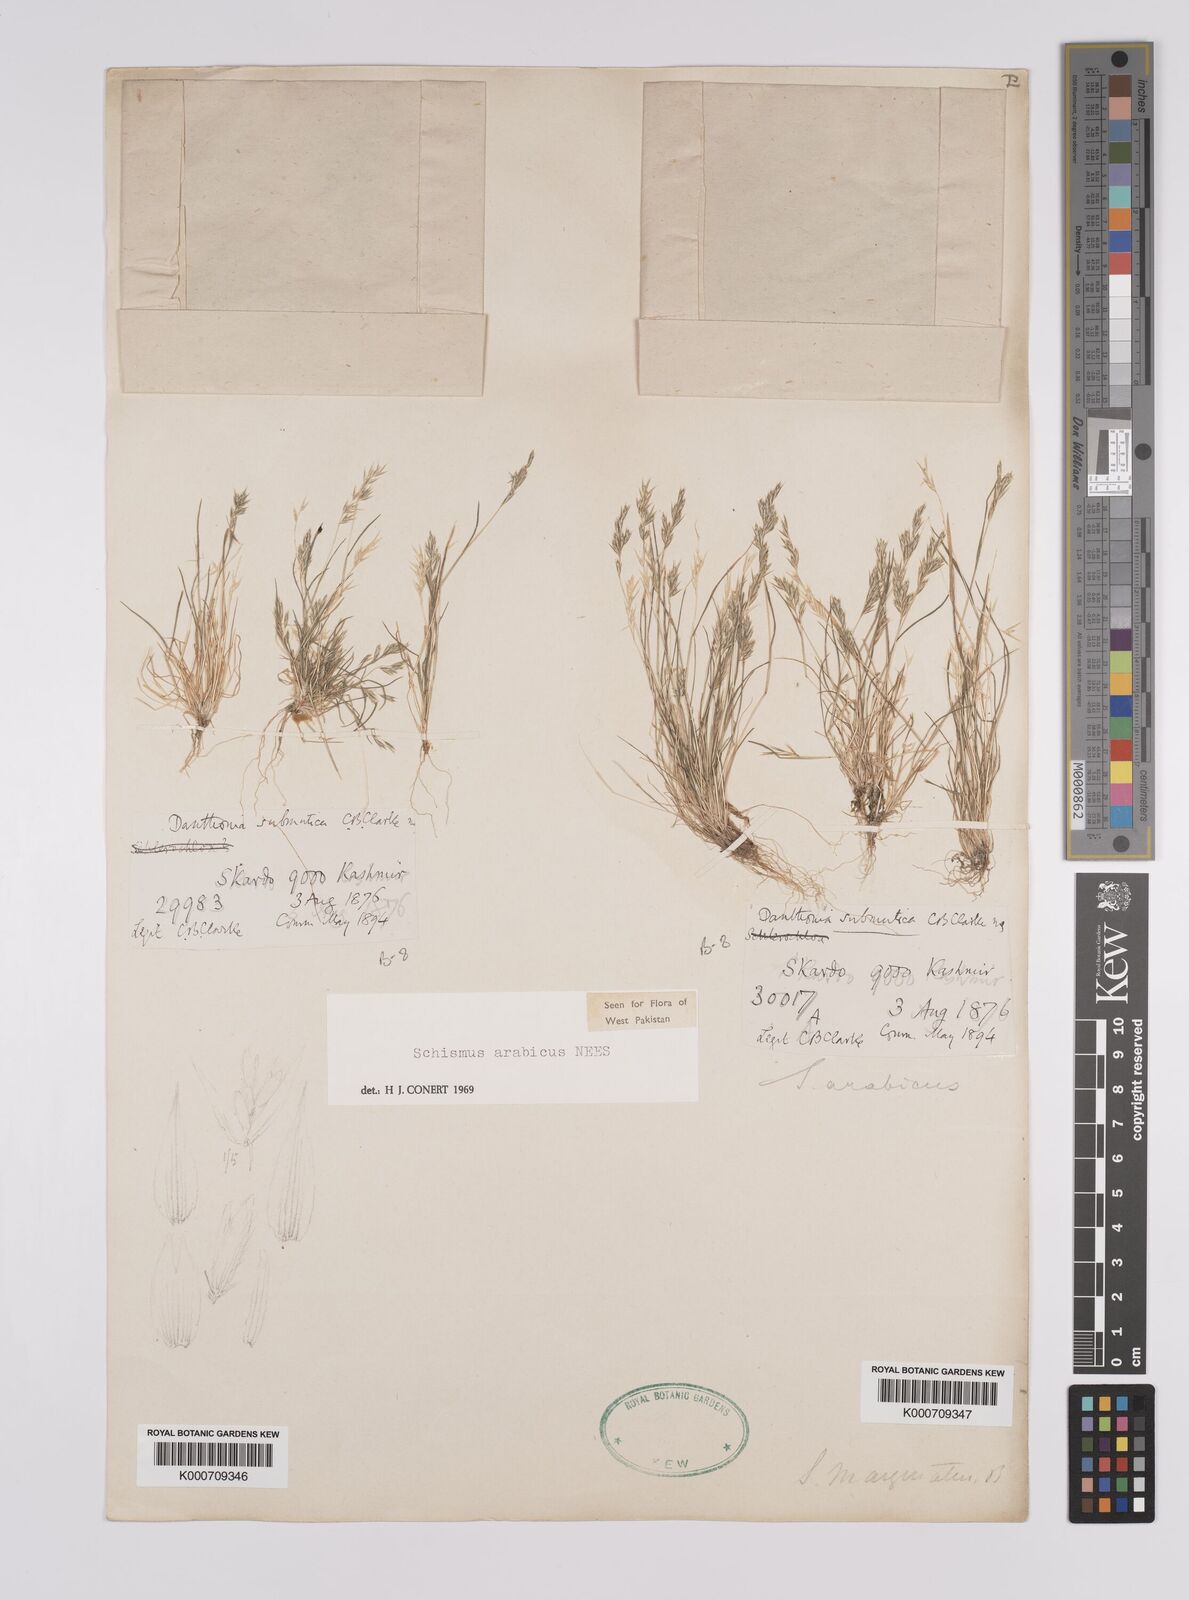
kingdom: Plantae
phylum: Tracheophyta
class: Liliopsida
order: Poales
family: Poaceae
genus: Schismus
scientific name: Schismus arabicus
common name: Arabian schismus
